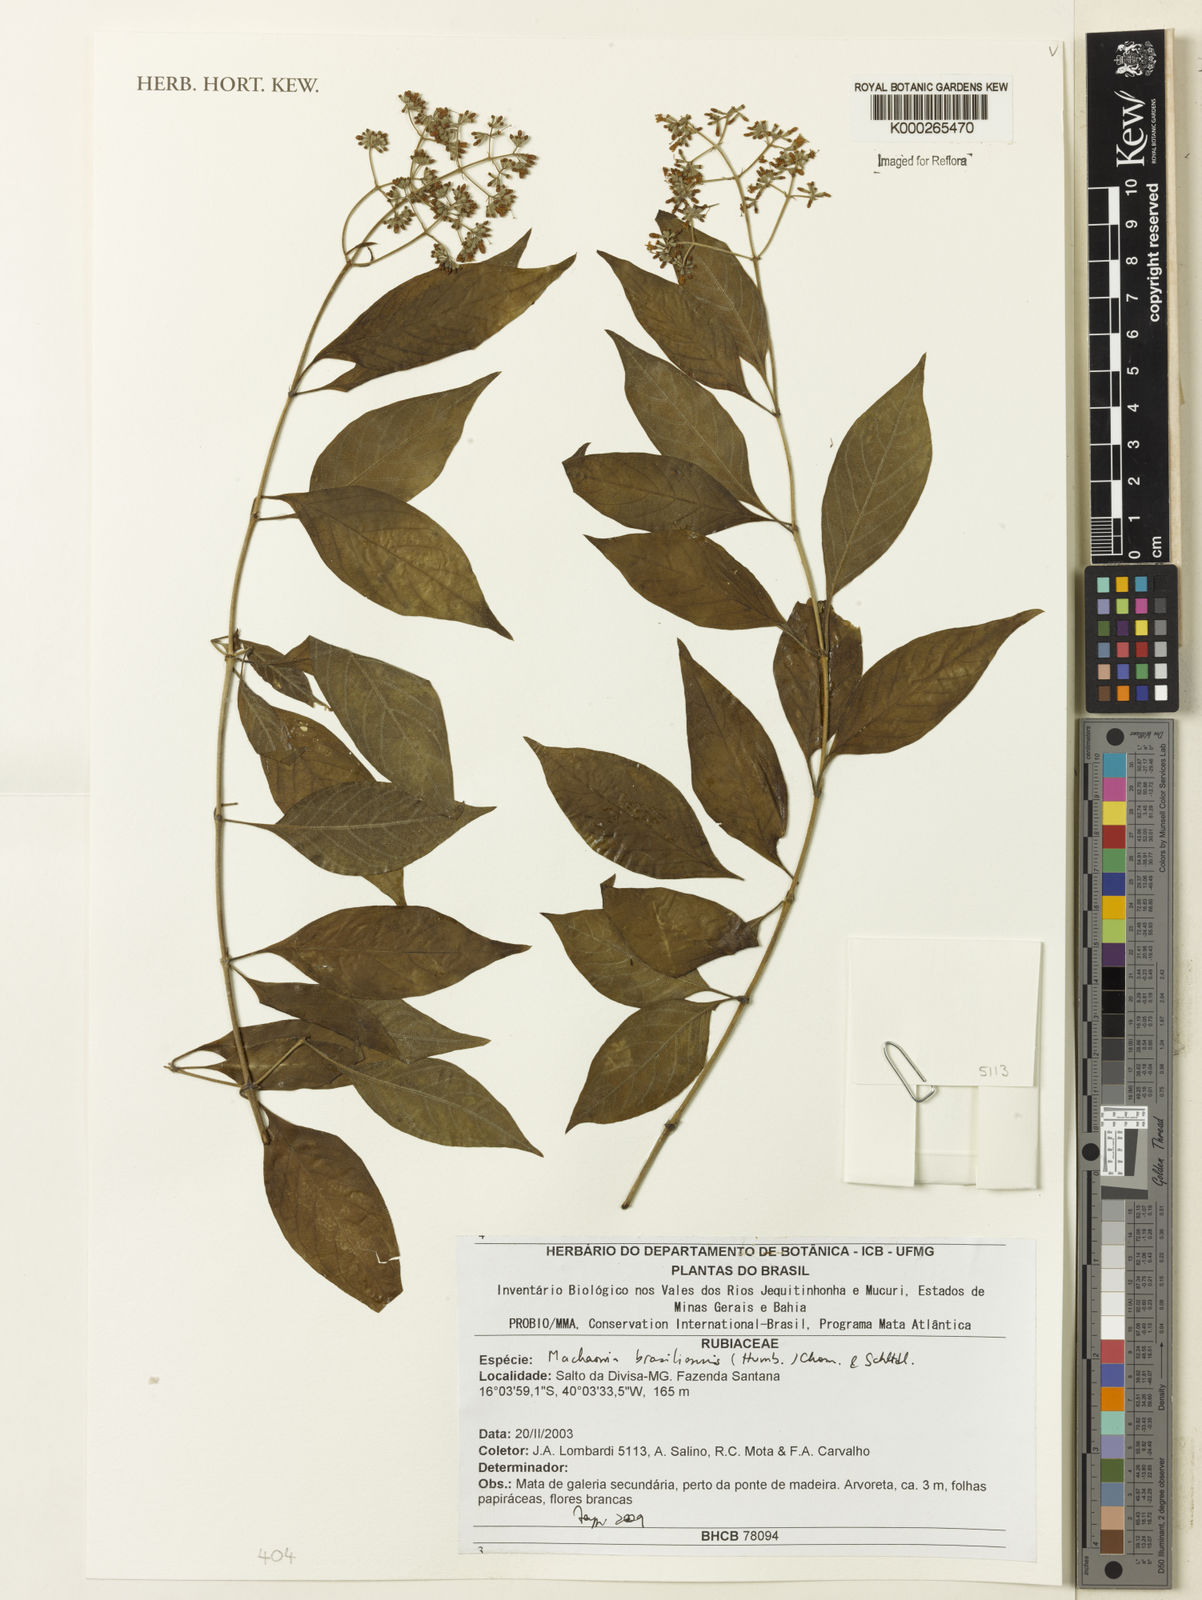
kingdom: Plantae
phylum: Tracheophyta
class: Magnoliopsida
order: Gentianales
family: Rubiaceae
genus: Machaonia
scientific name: Machaonia brasiliensis
